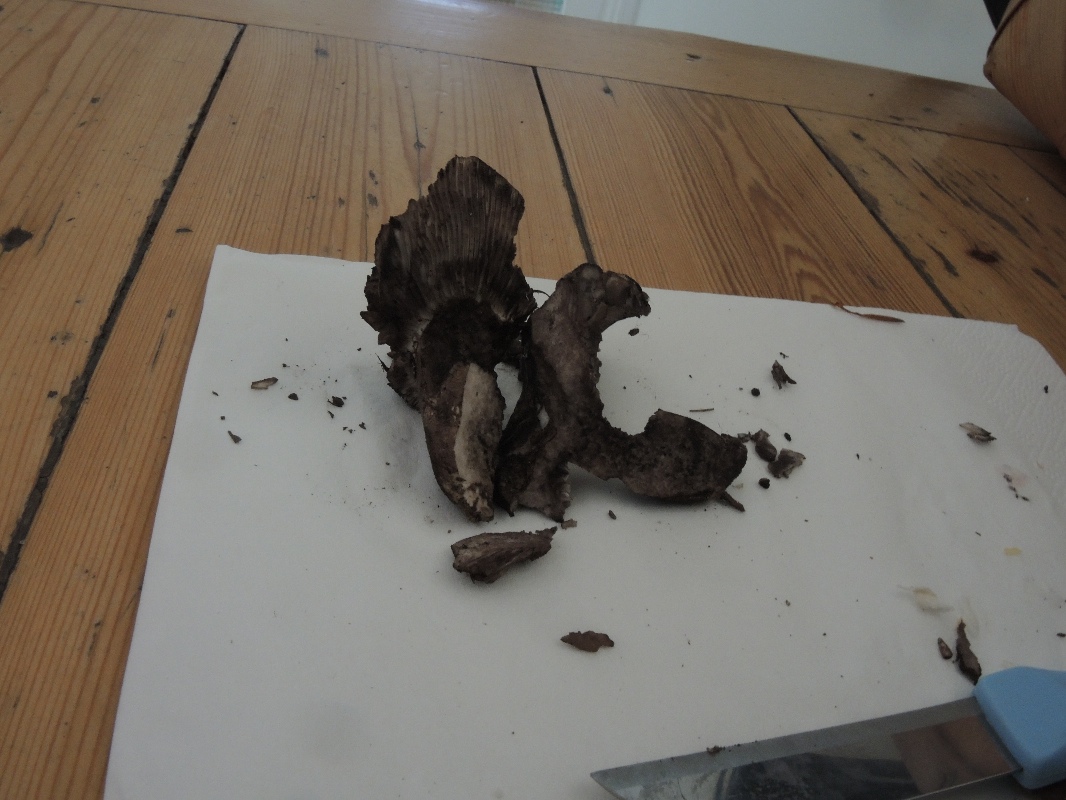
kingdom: Fungi
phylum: Basidiomycota
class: Agaricomycetes
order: Russulales
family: Russulaceae
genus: Russula
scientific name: Russula anthracina
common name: kul-skørhat
